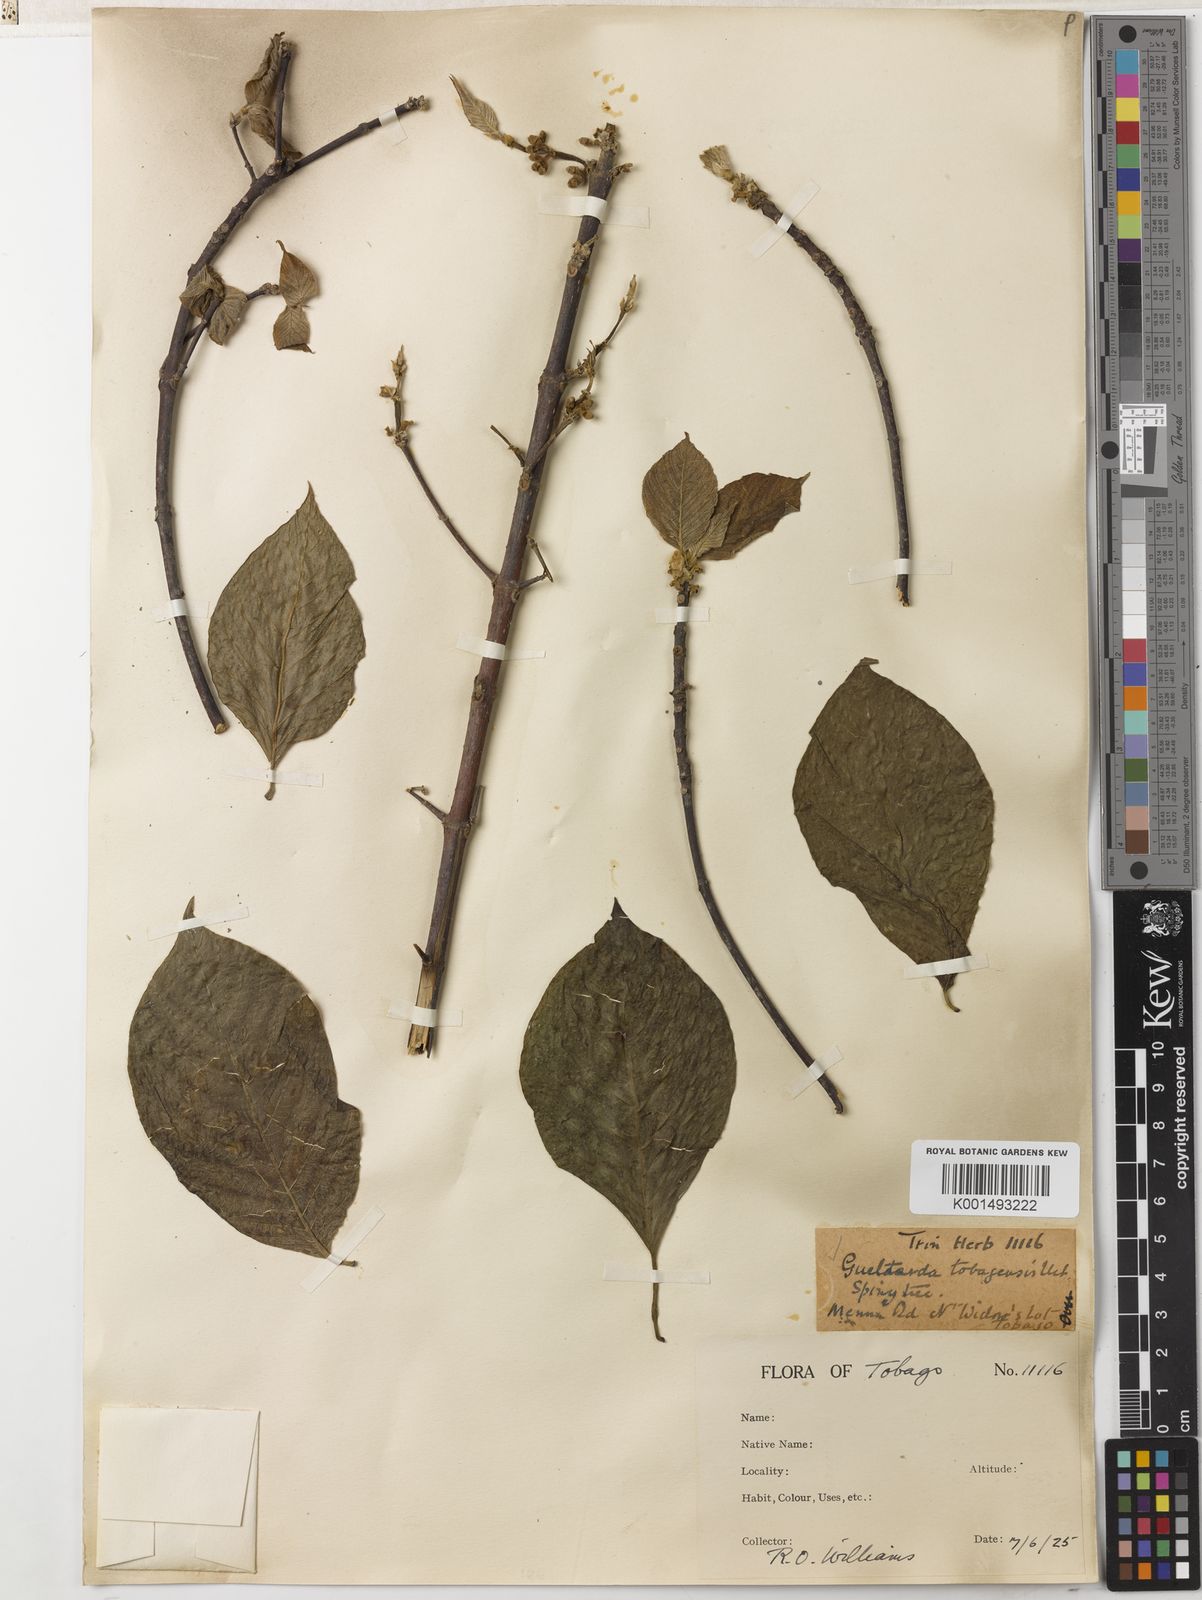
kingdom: Plantae
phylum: Tracheophyta
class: Magnoliopsida
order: Gentianales
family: Rubiaceae
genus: Guettarda
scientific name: Guettarda tobagensis
